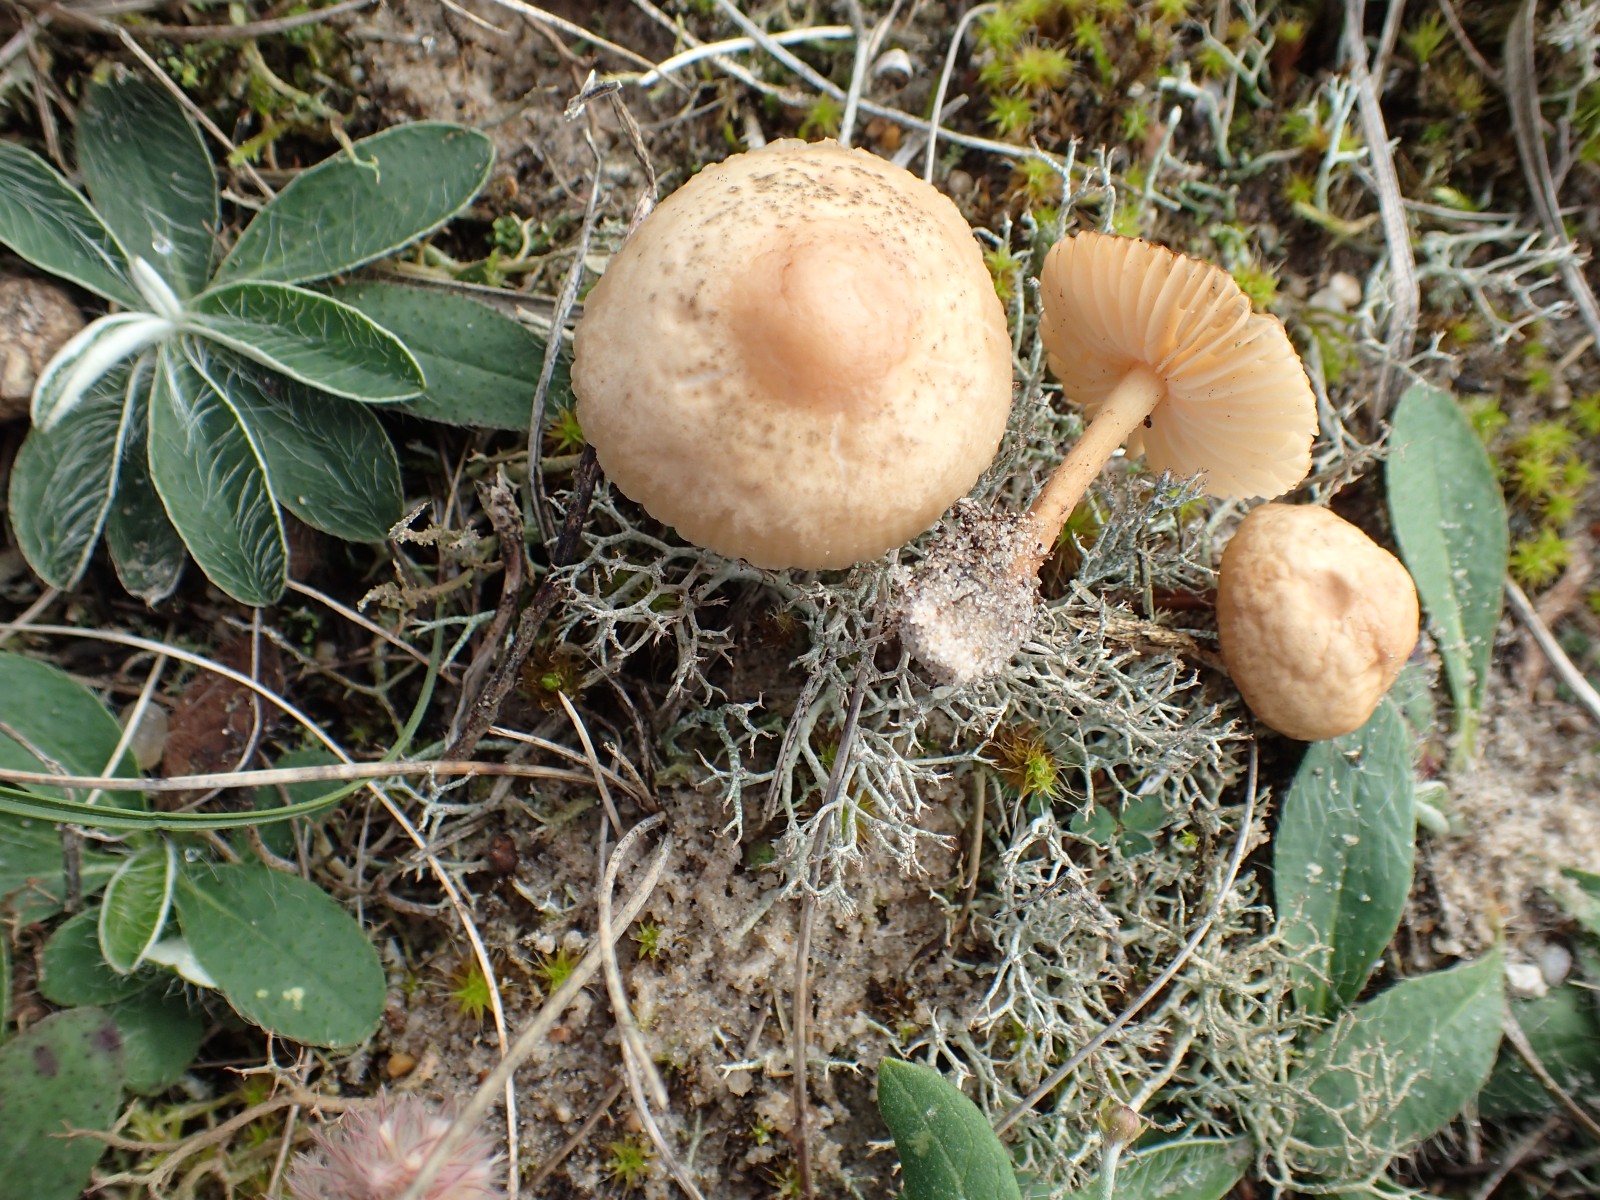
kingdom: Fungi
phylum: Basidiomycota
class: Agaricomycetes
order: Agaricales
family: Marasmiaceae
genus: Marasmius
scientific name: Marasmius oreades
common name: elledans-bruskhat
